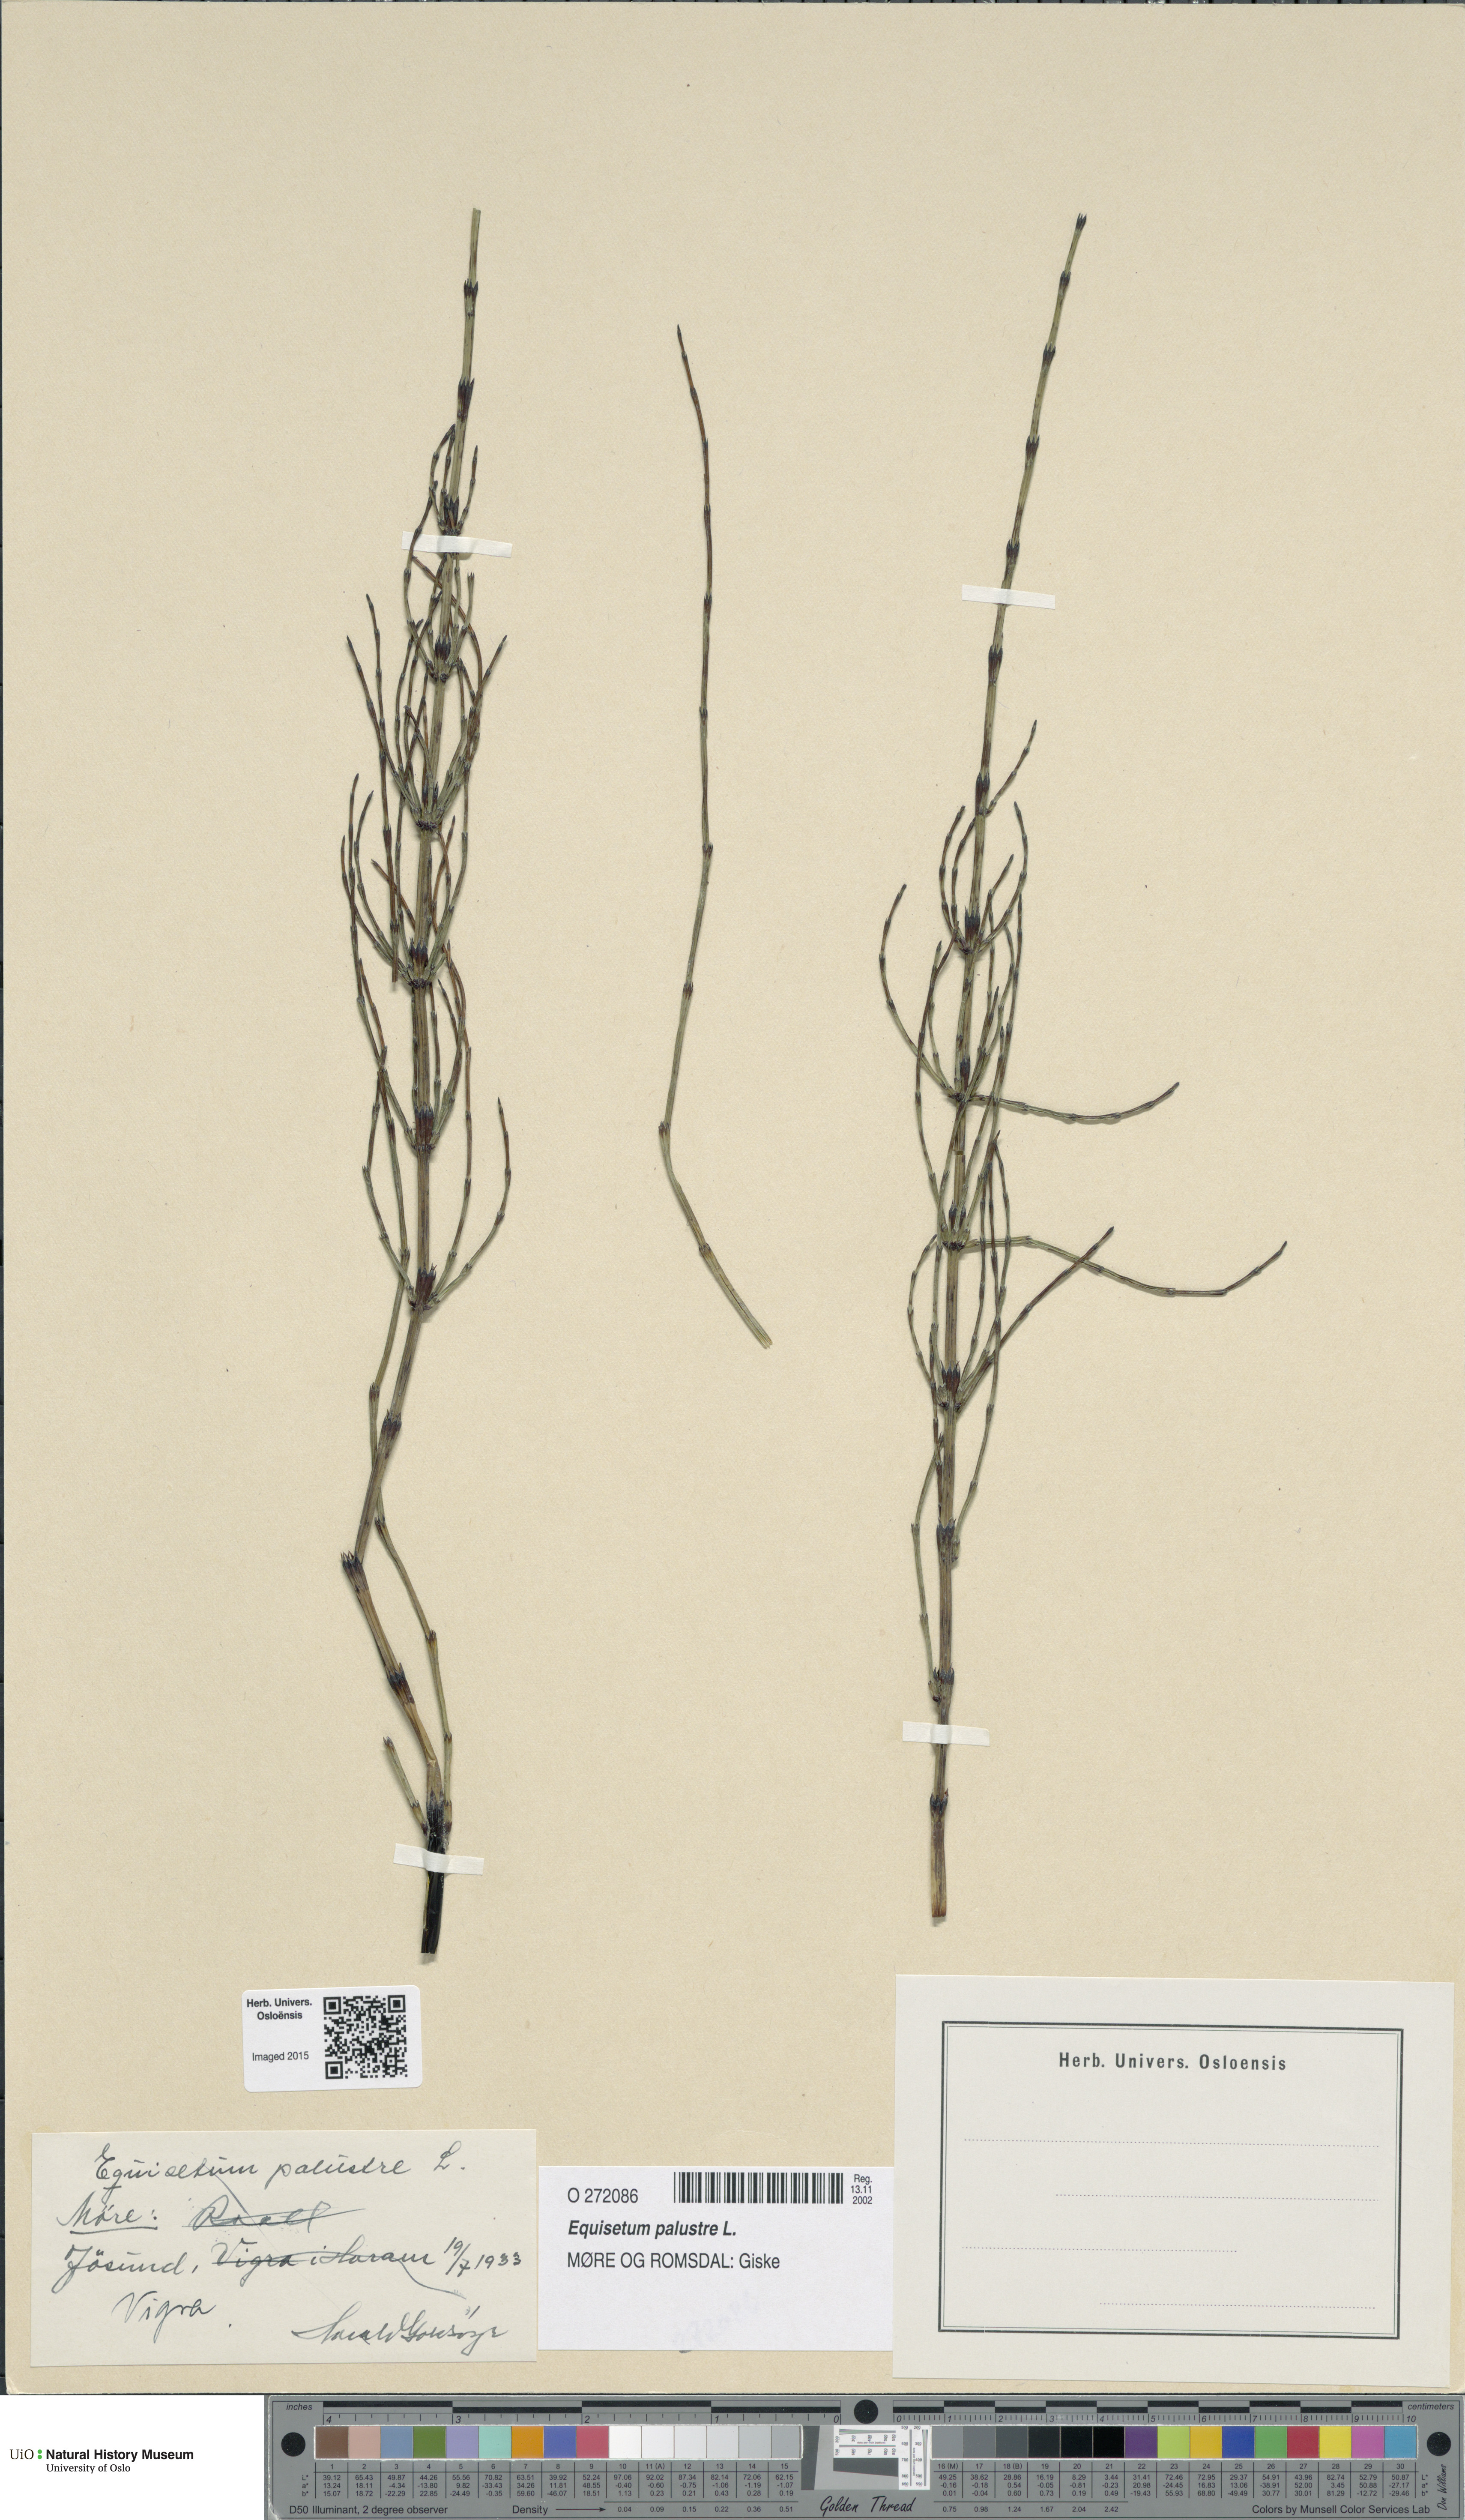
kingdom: Plantae
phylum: Tracheophyta
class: Polypodiopsida
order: Equisetales
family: Equisetaceae
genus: Equisetum
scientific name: Equisetum palustre
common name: Marsh horsetail
